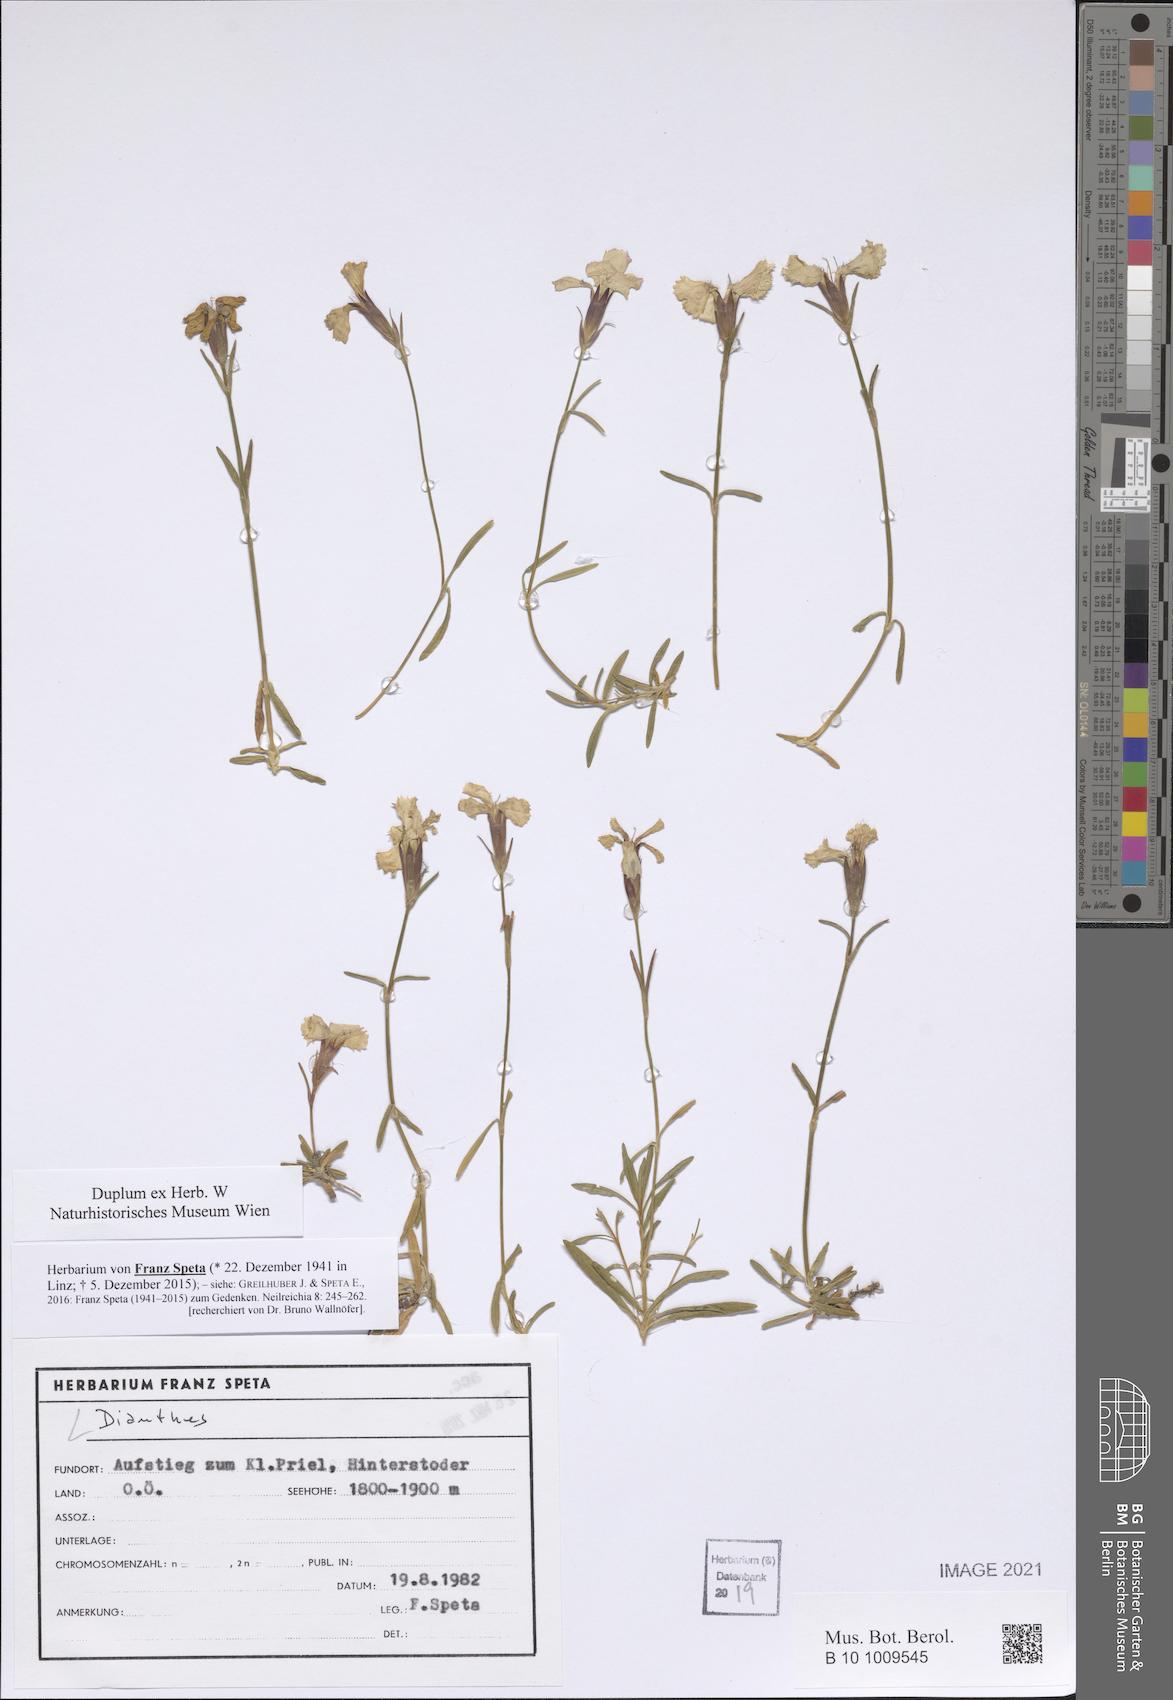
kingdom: Plantae
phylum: Tracheophyta
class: Magnoliopsida
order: Caryophyllales
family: Caryophyllaceae
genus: Dianthus
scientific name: Dianthus
